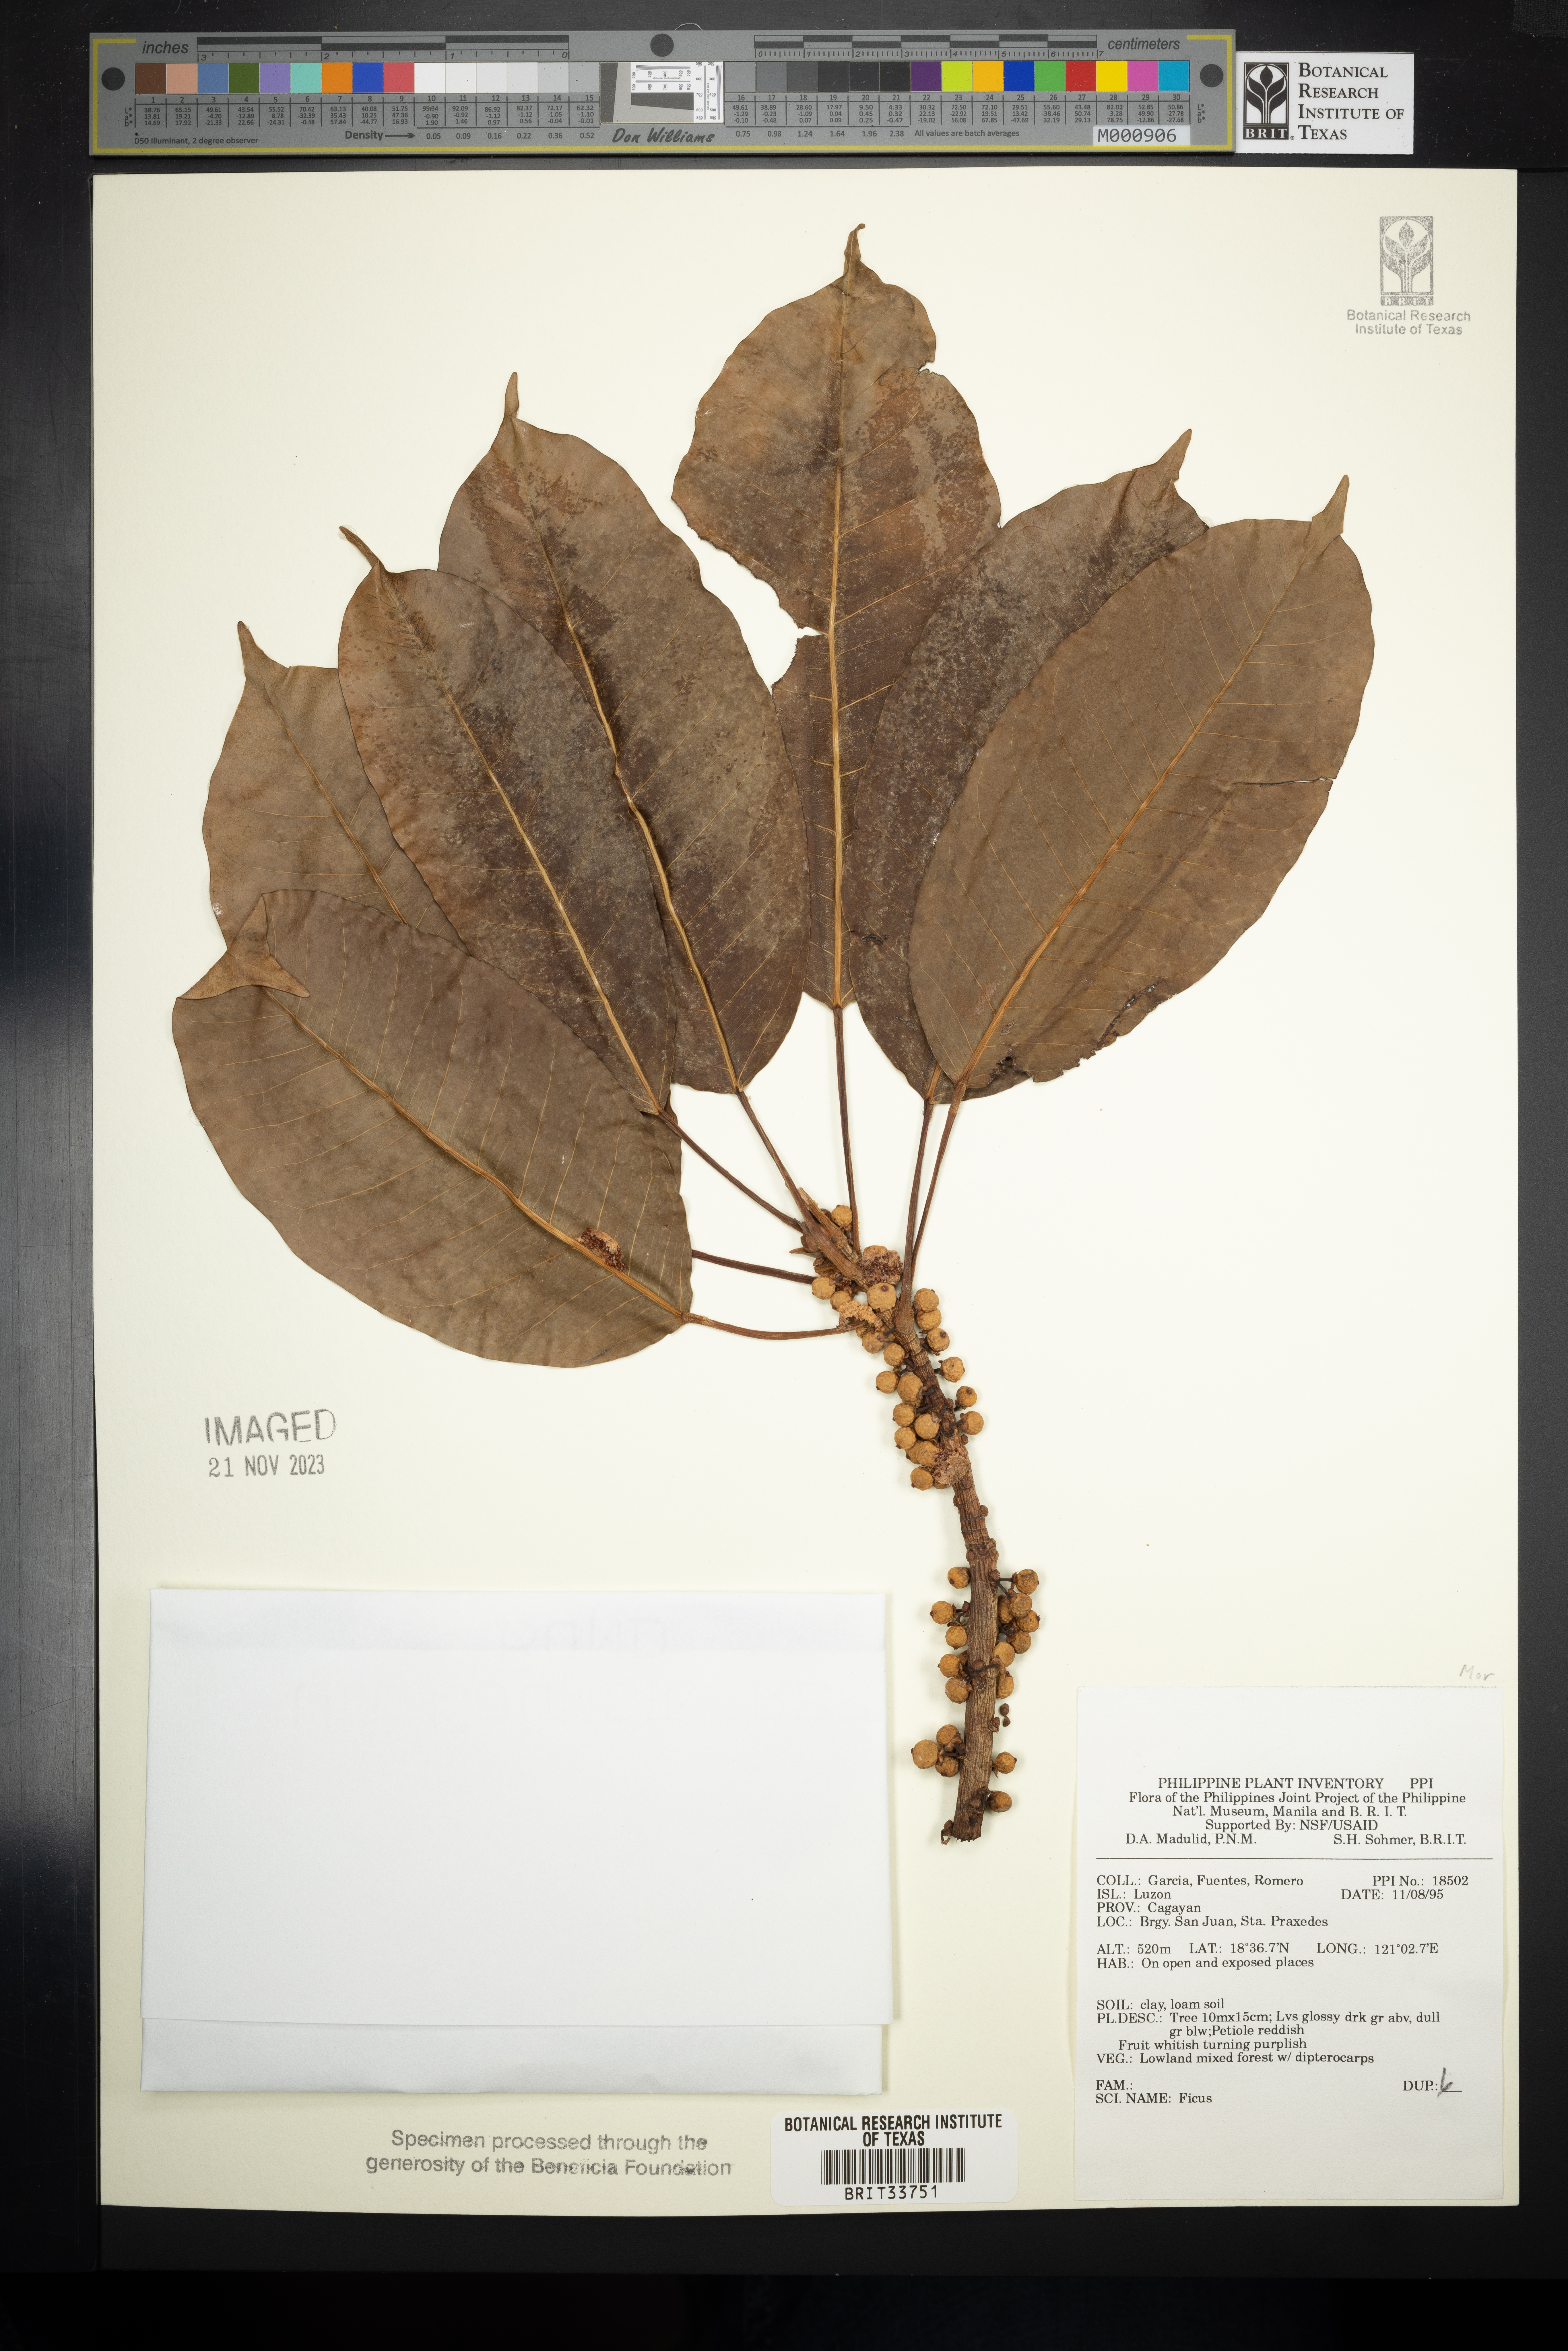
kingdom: Plantae
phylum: Tracheophyta
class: Magnoliopsida
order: Rosales
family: Moraceae
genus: Ficus
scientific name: Ficus
